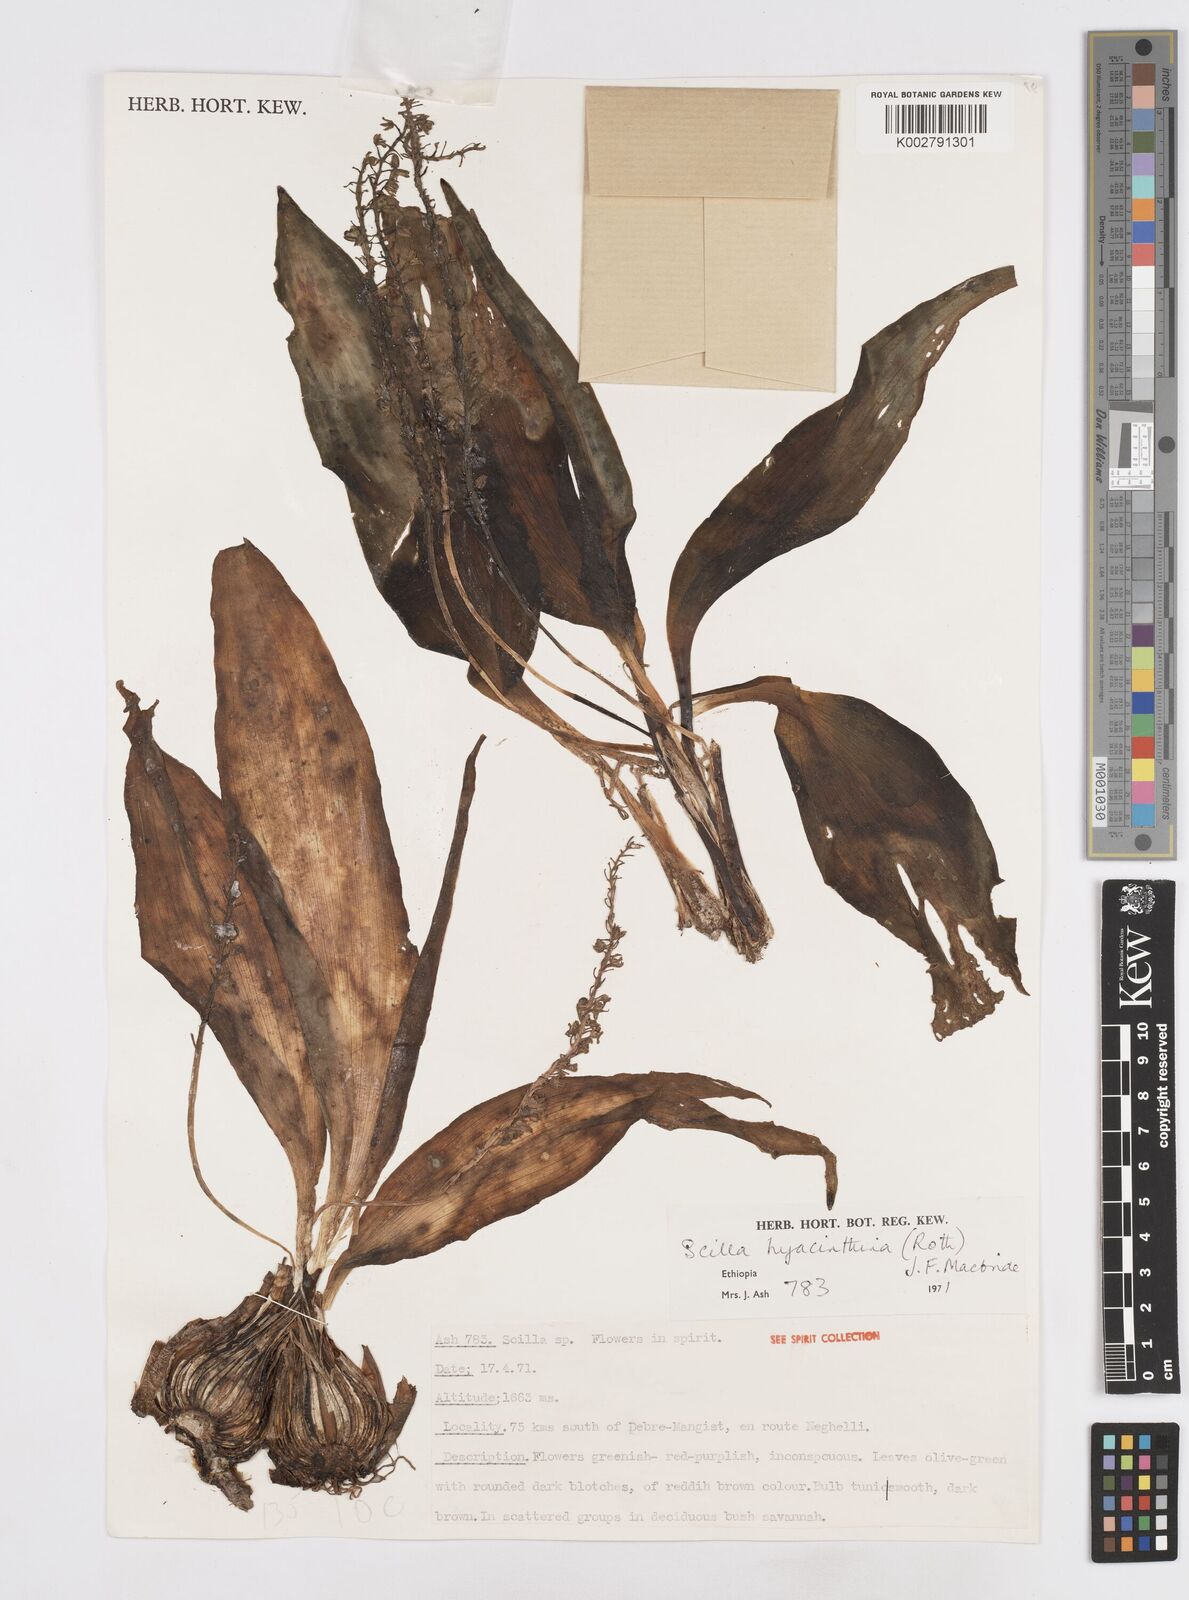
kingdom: Plantae
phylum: Tracheophyta
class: Liliopsida
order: Asparagales
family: Asparagaceae
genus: Ledebouria
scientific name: Ledebouria revoluta
